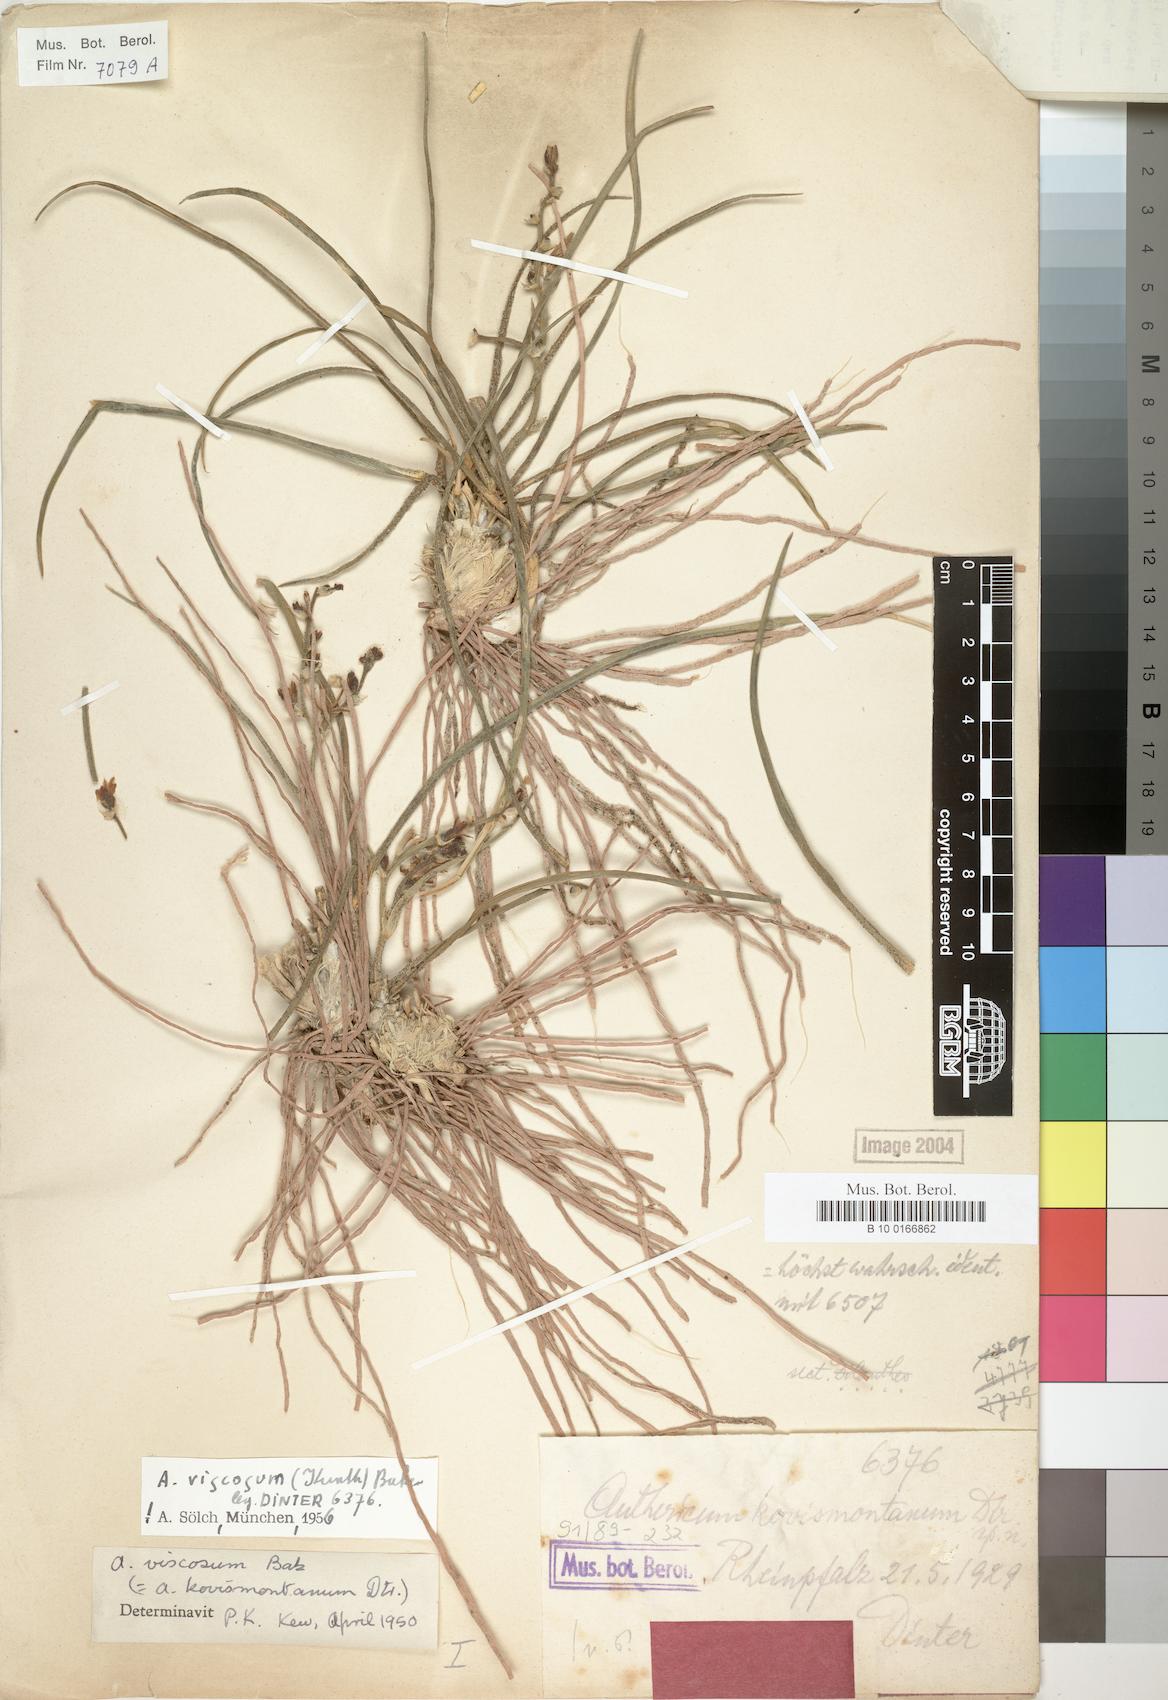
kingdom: Plantae
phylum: Tracheophyta
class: Liliopsida
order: Asparagales
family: Asparagaceae
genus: Chlorophytum
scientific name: Chlorophytum viscosum
